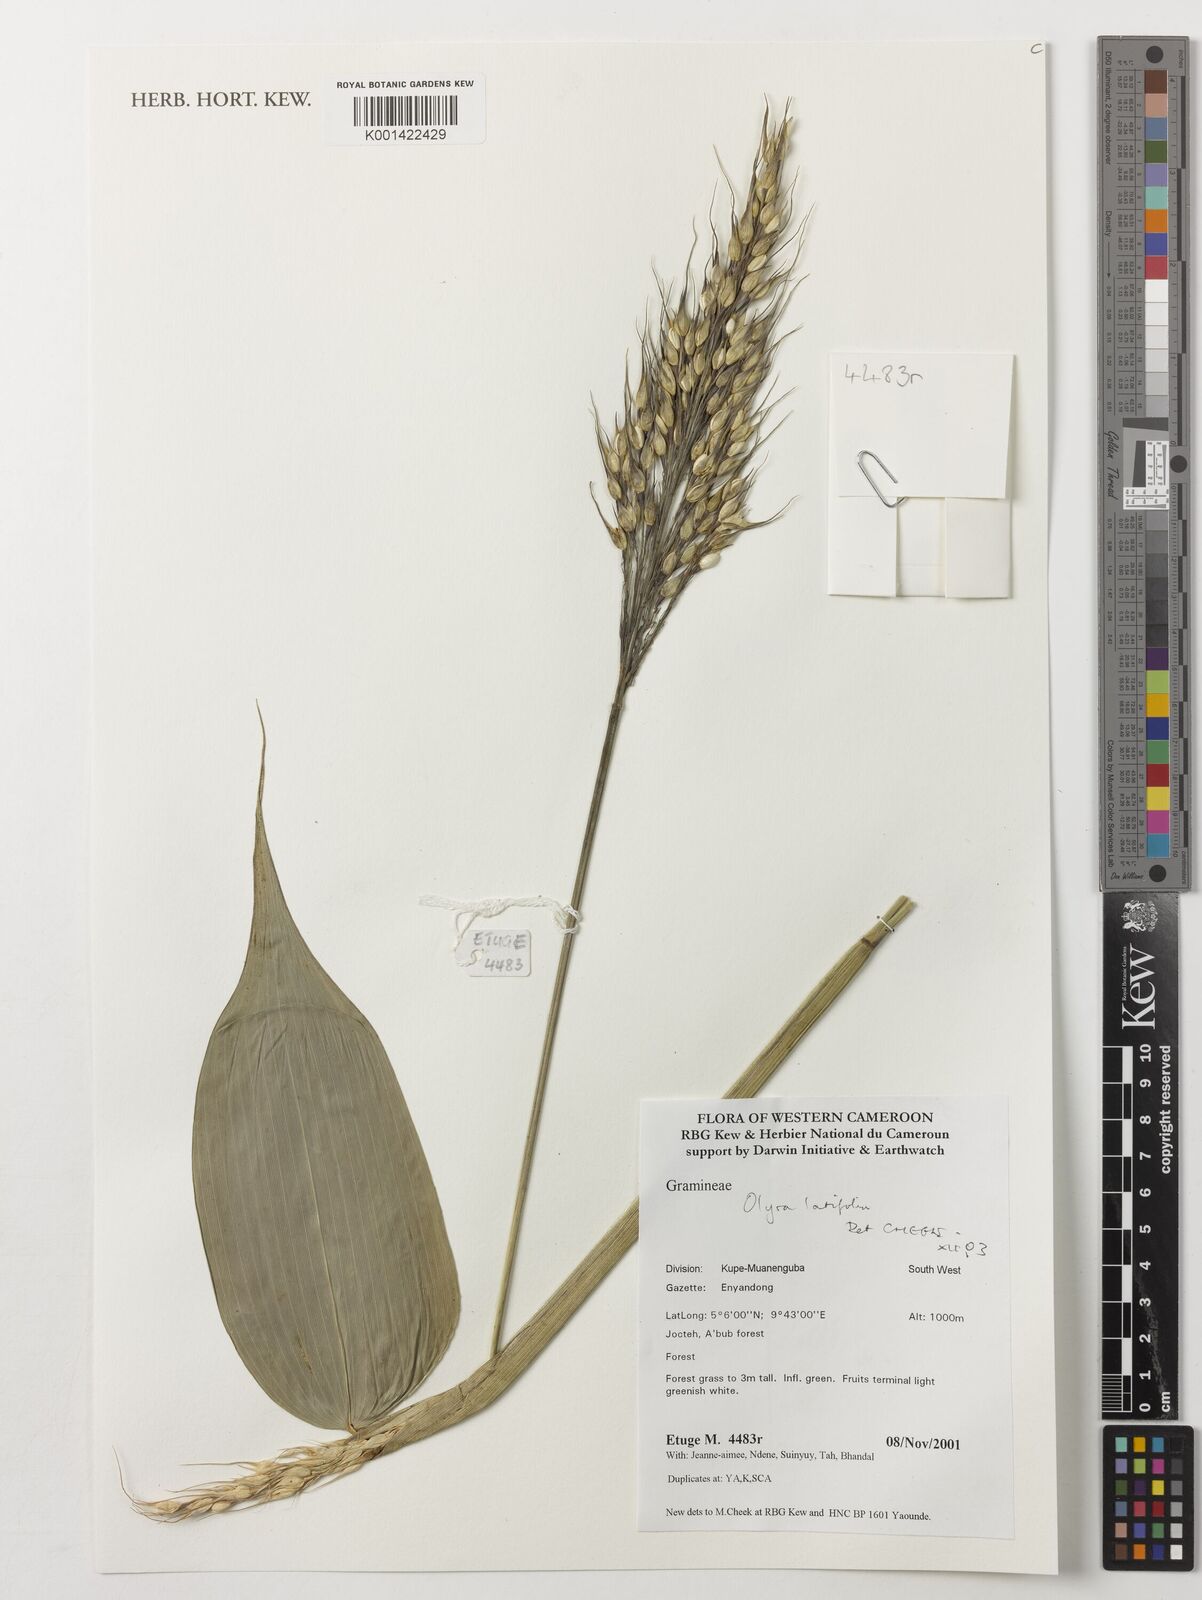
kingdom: Plantae
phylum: Tracheophyta
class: Liliopsida
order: Poales
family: Poaceae
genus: Olyra
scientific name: Olyra latifolia
